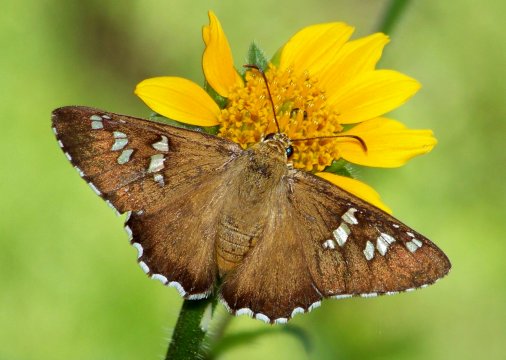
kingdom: Animalia
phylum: Arthropoda
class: Insecta
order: Lepidoptera
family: Hesperiidae
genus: Pyrrhopyge
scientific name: Pyrrhopyge araxes
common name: Dull Firetip
